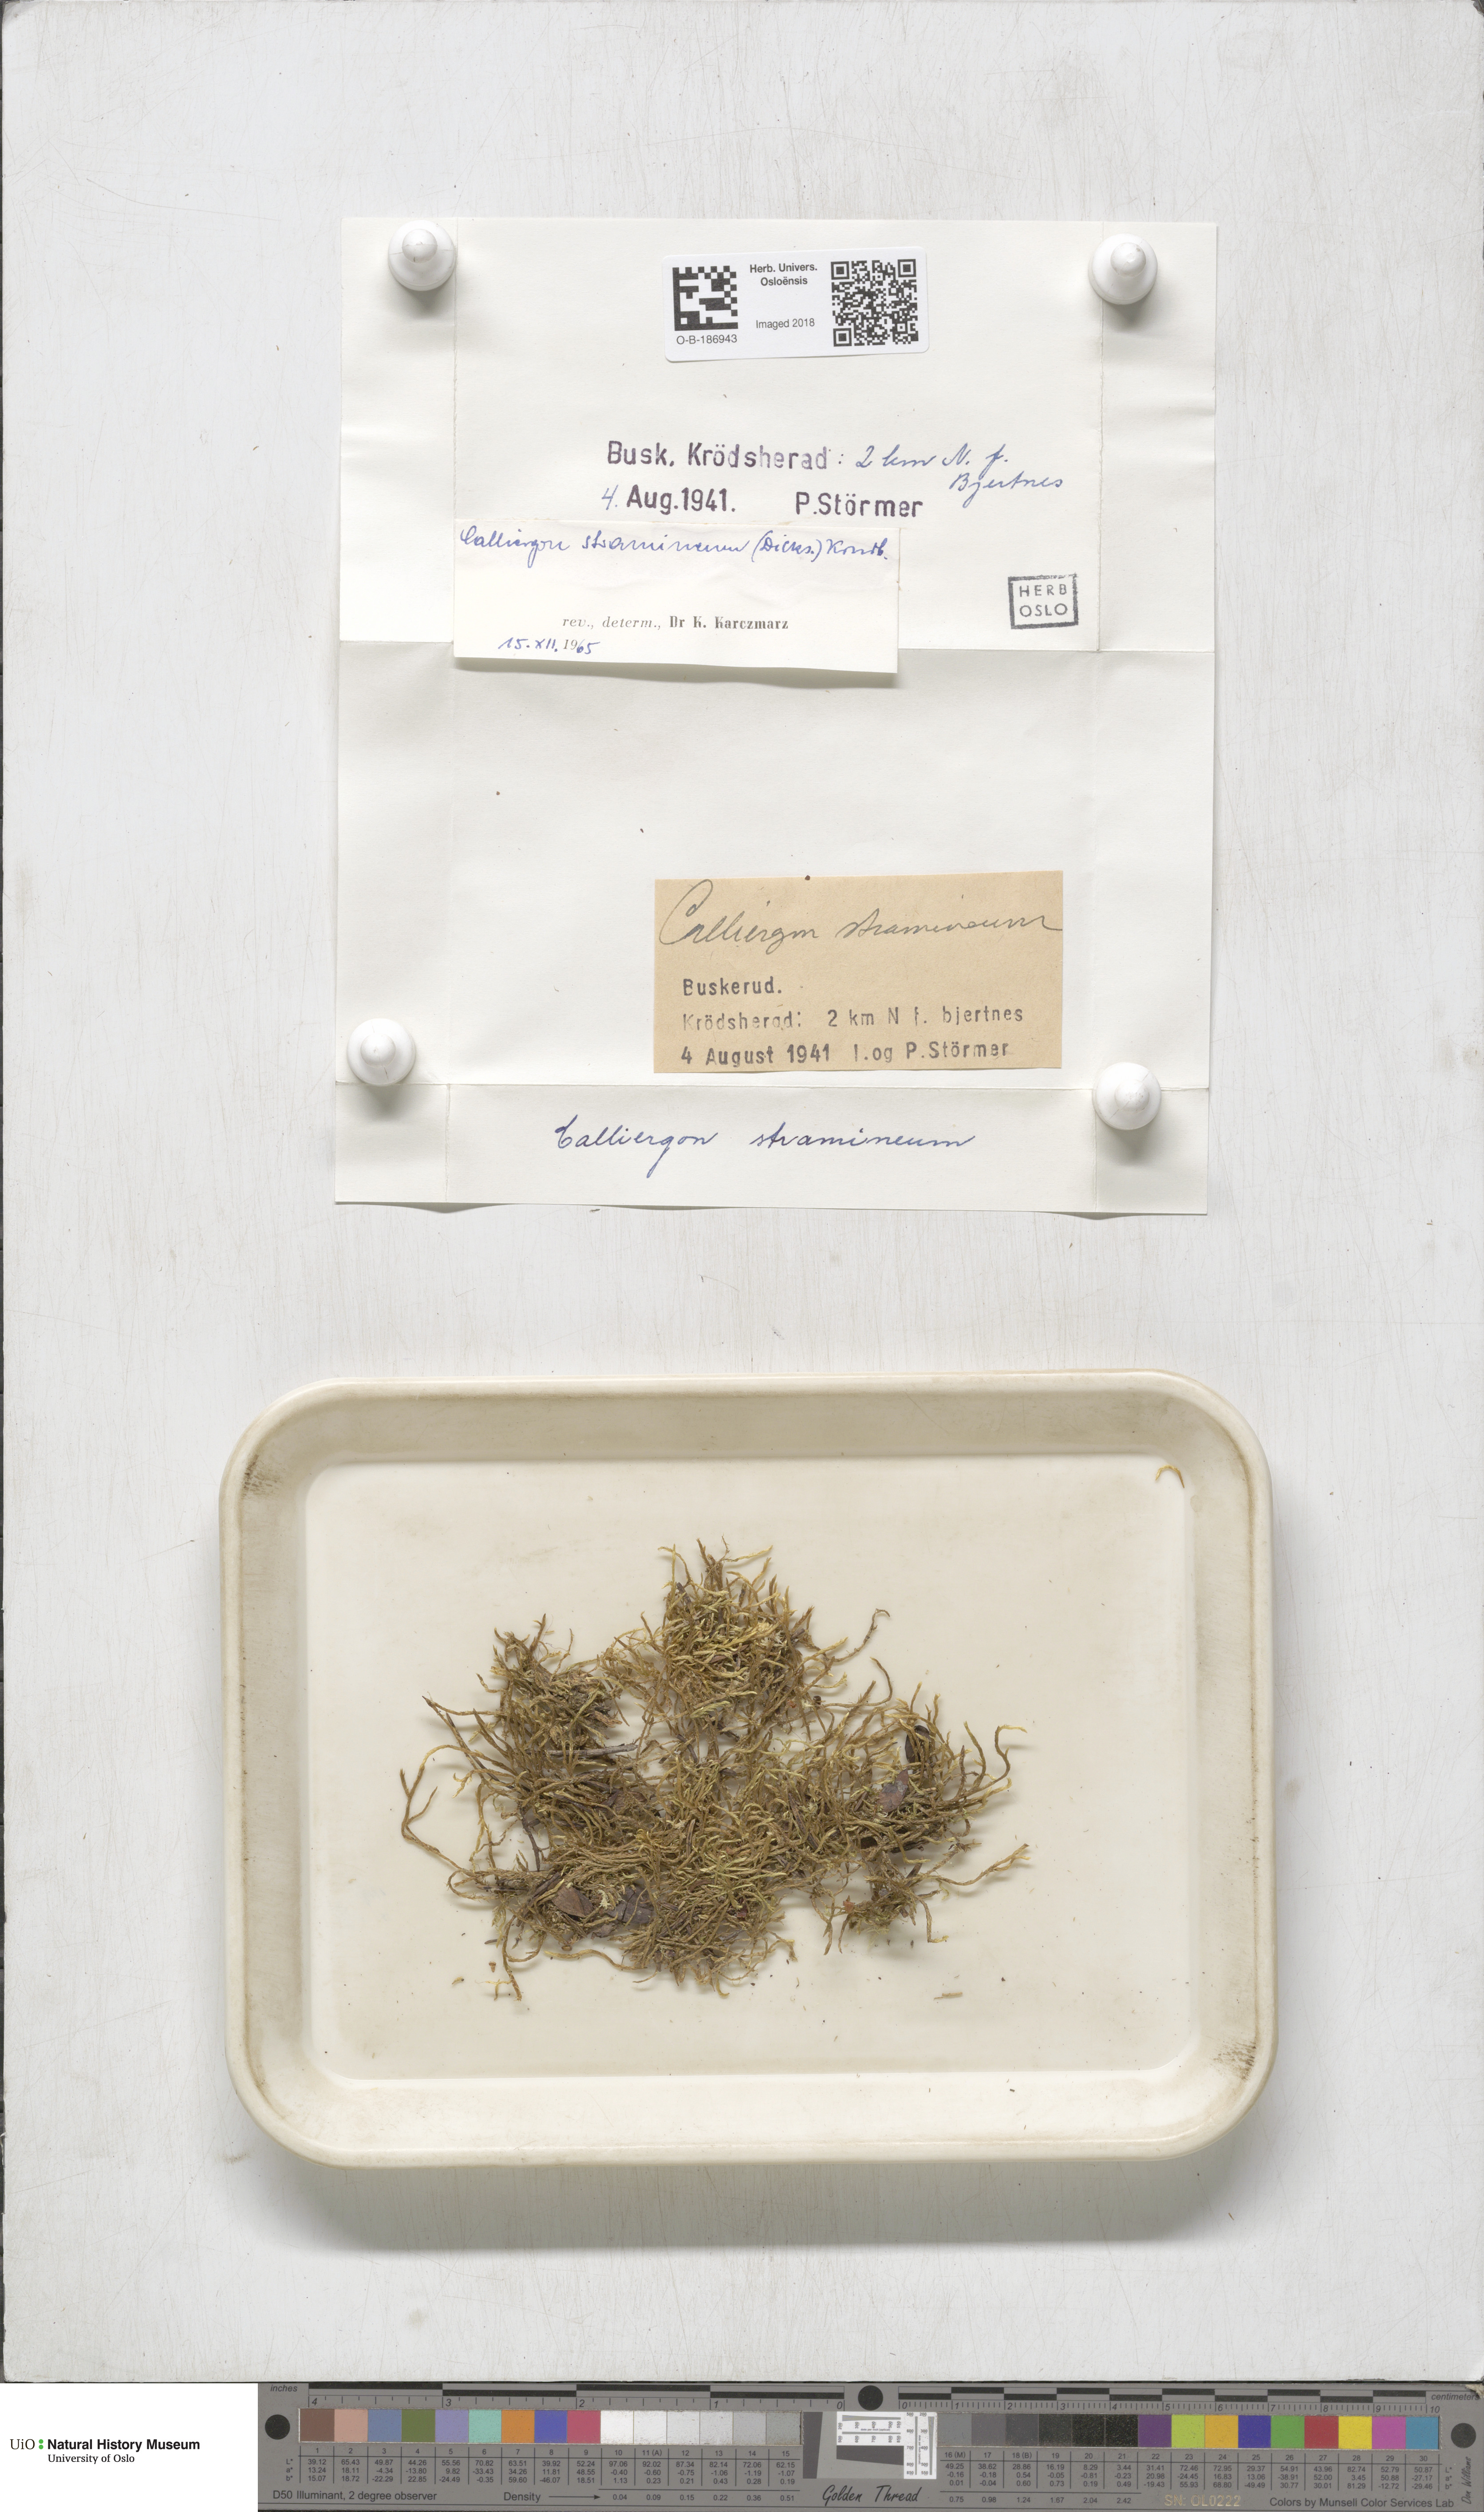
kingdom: Plantae
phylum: Bryophyta
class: Bryopsida
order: Hypnales
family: Calliergonaceae
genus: Straminergon
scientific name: Straminergon stramineum
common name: Straw moss
